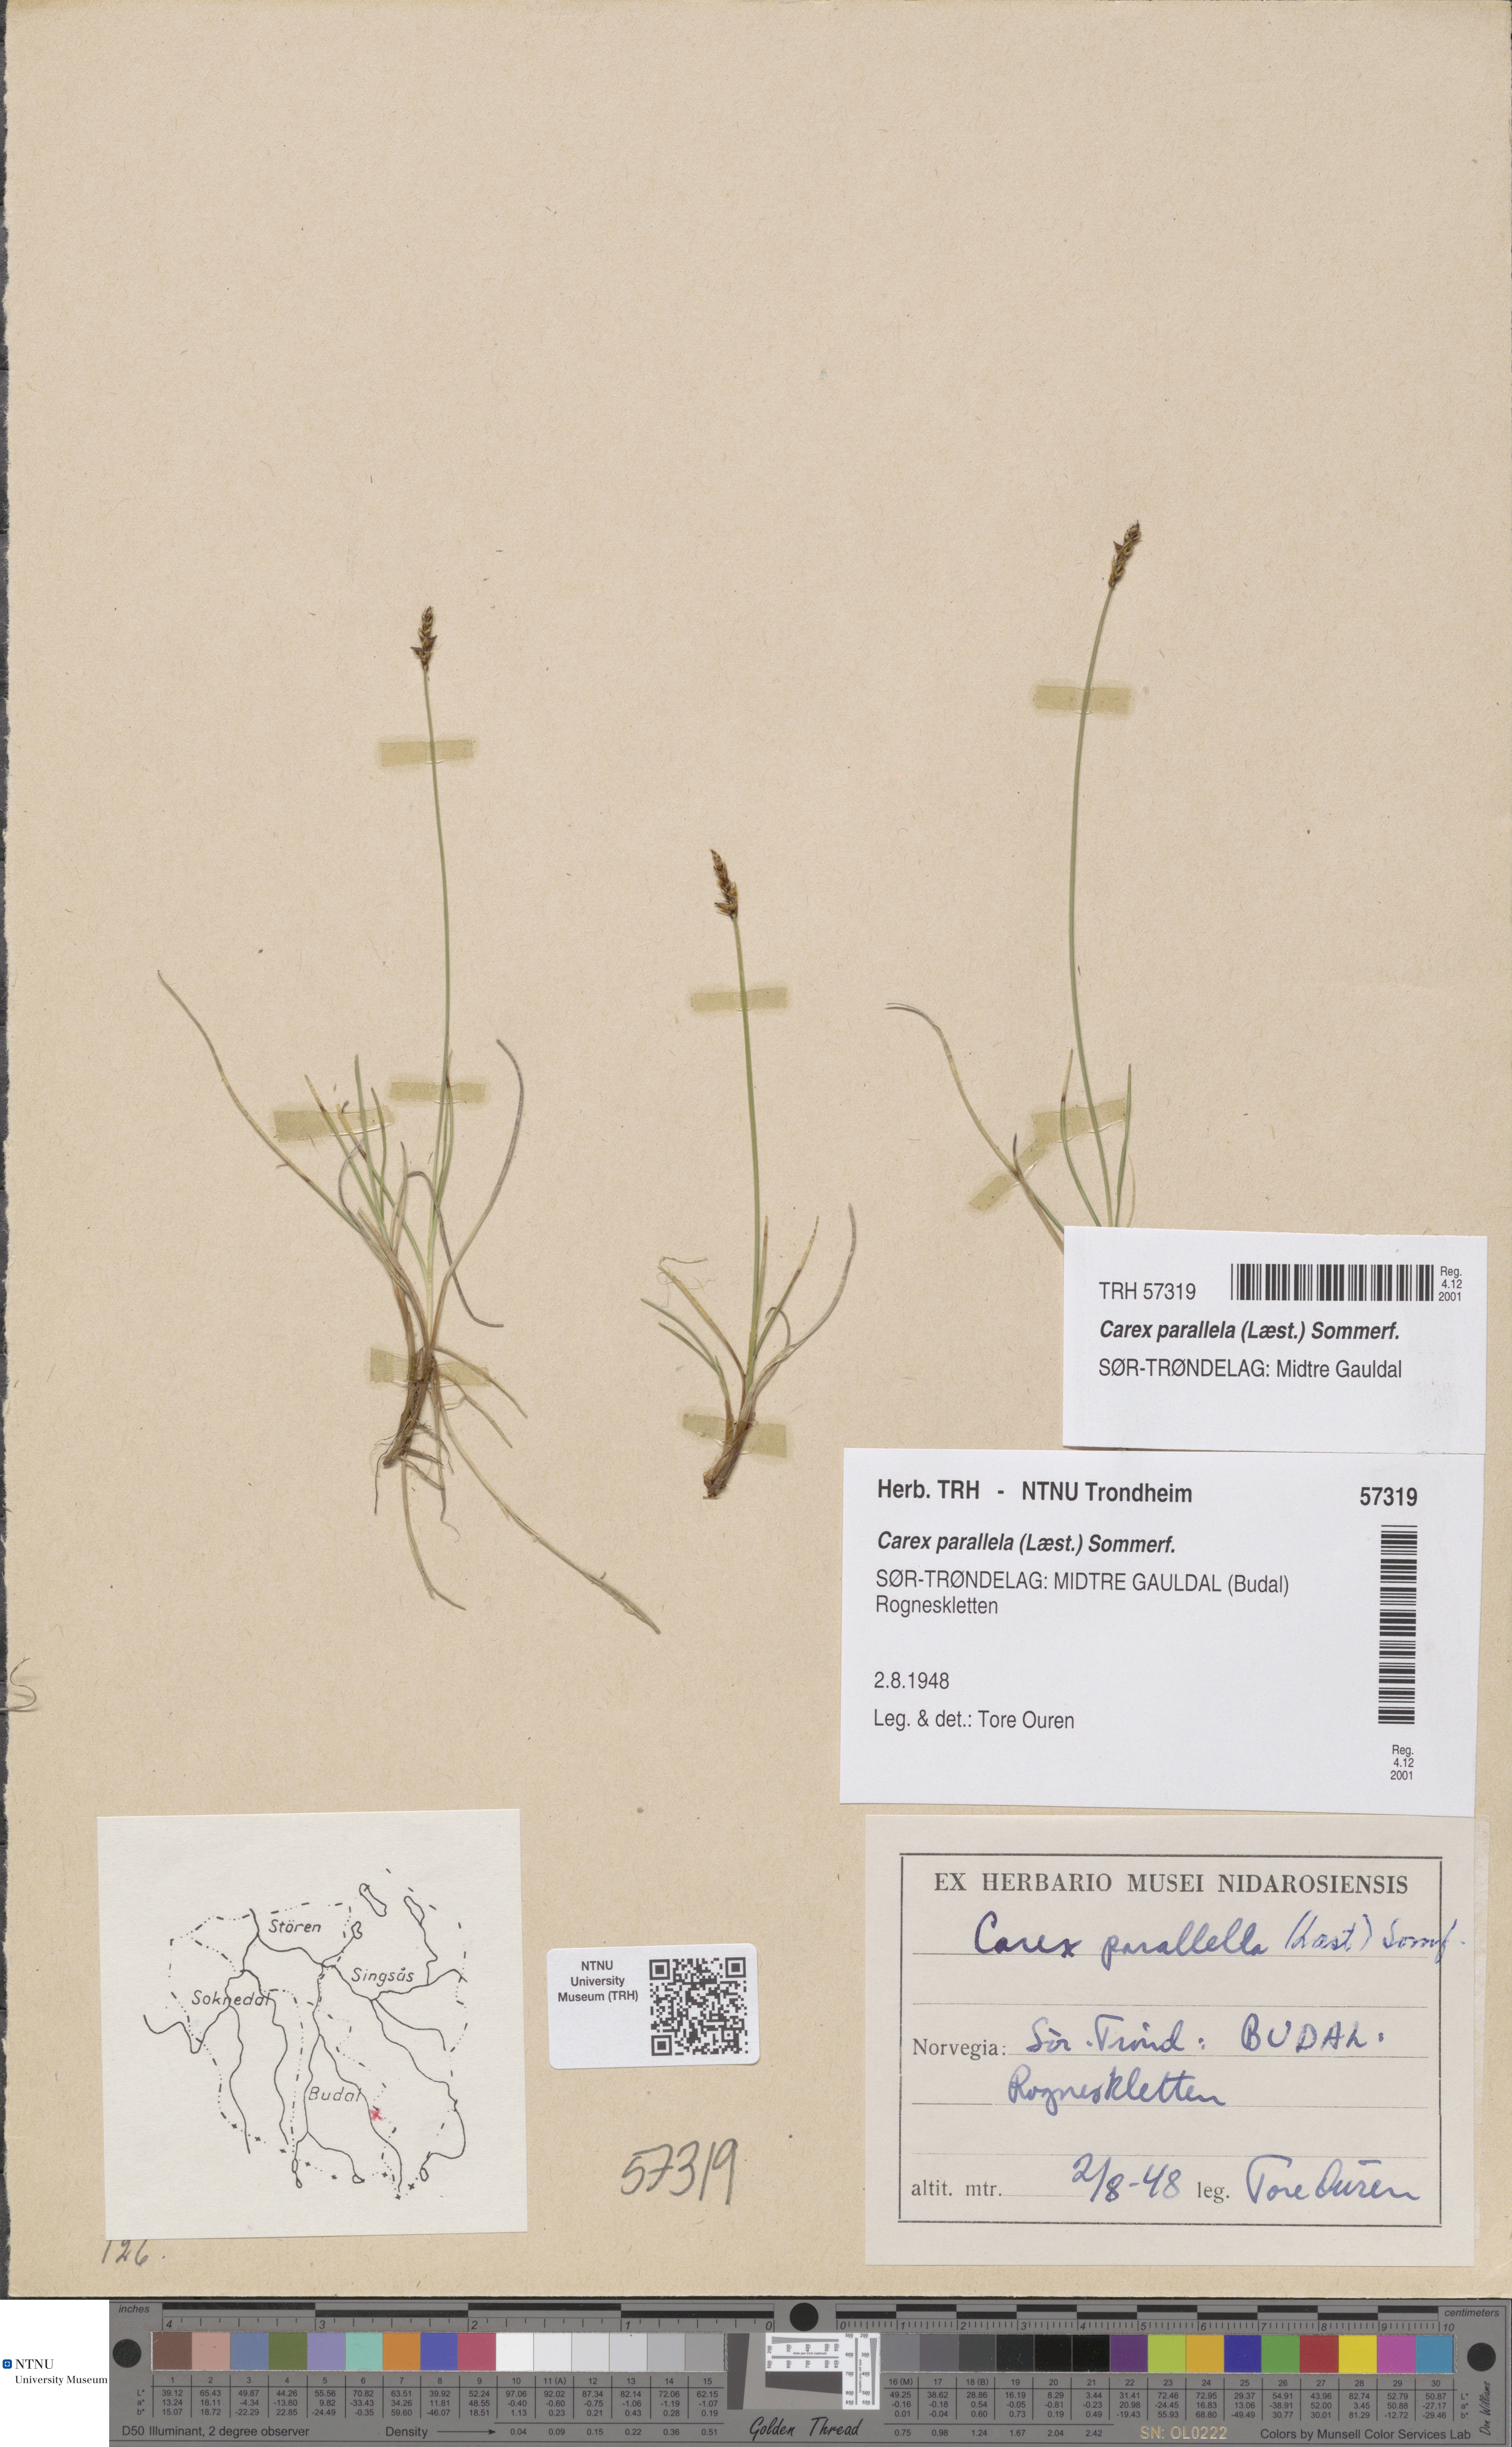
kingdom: Plantae
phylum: Tracheophyta
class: Liliopsida
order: Poales
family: Cyperaceae
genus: Carex
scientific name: Carex parallela
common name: Parallel sedge
